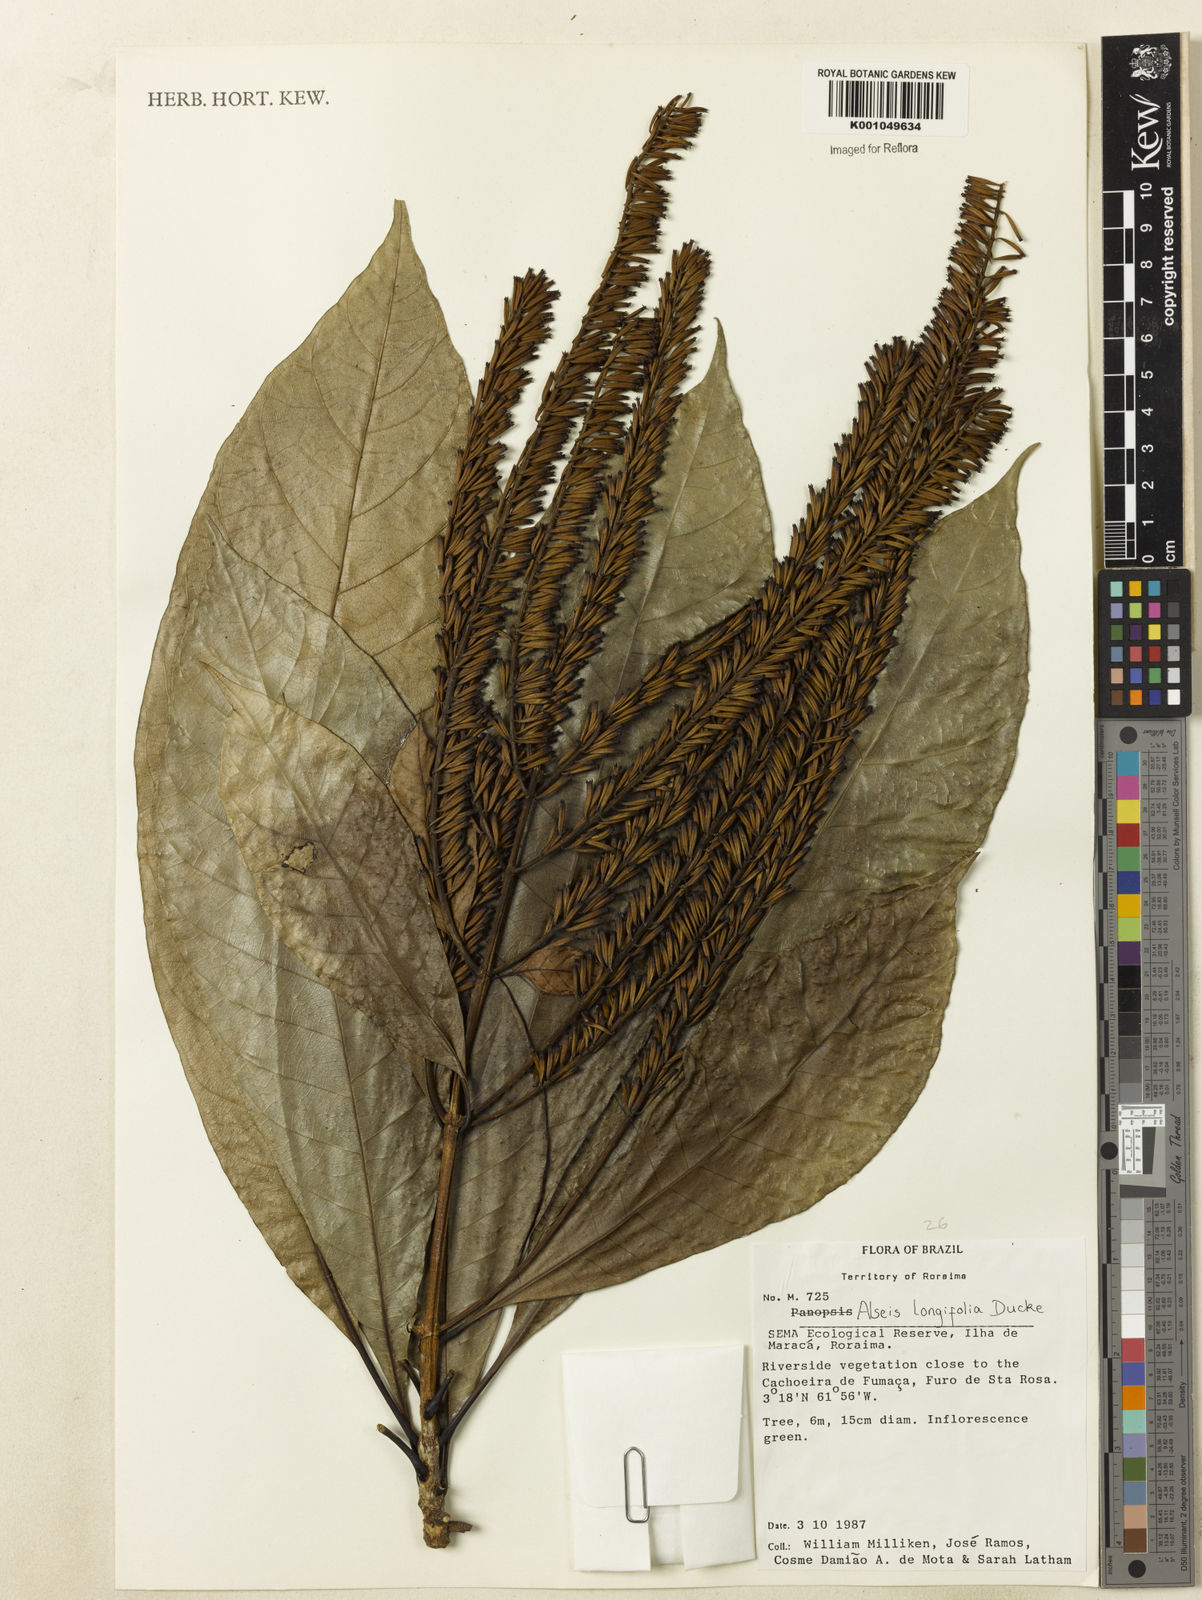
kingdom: Plantae
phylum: Tracheophyta
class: Magnoliopsida
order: Gentianales
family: Rubiaceae
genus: Alseis
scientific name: Alseis longifolia
